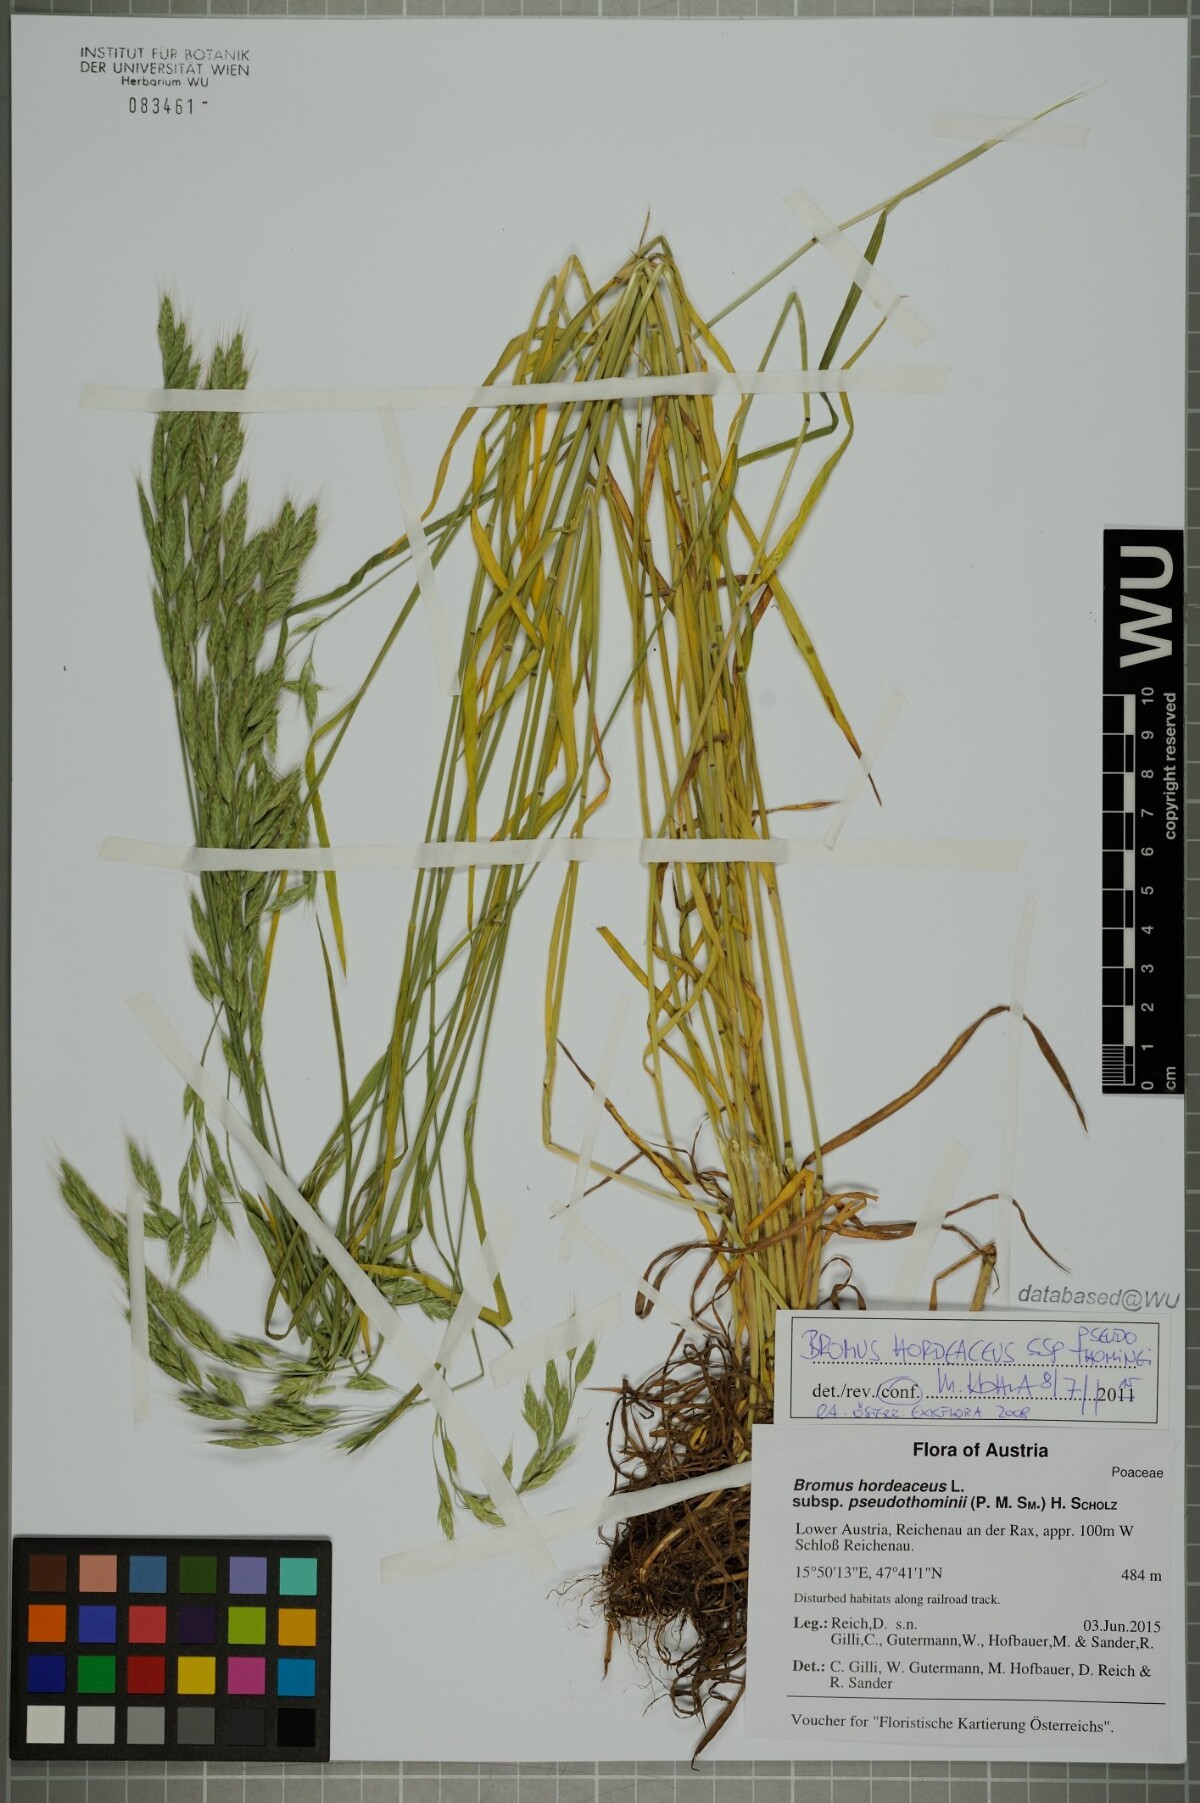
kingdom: Plantae
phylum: Tracheophyta
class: Liliopsida
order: Poales
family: Poaceae
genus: Bromus
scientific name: Bromus ferronii
